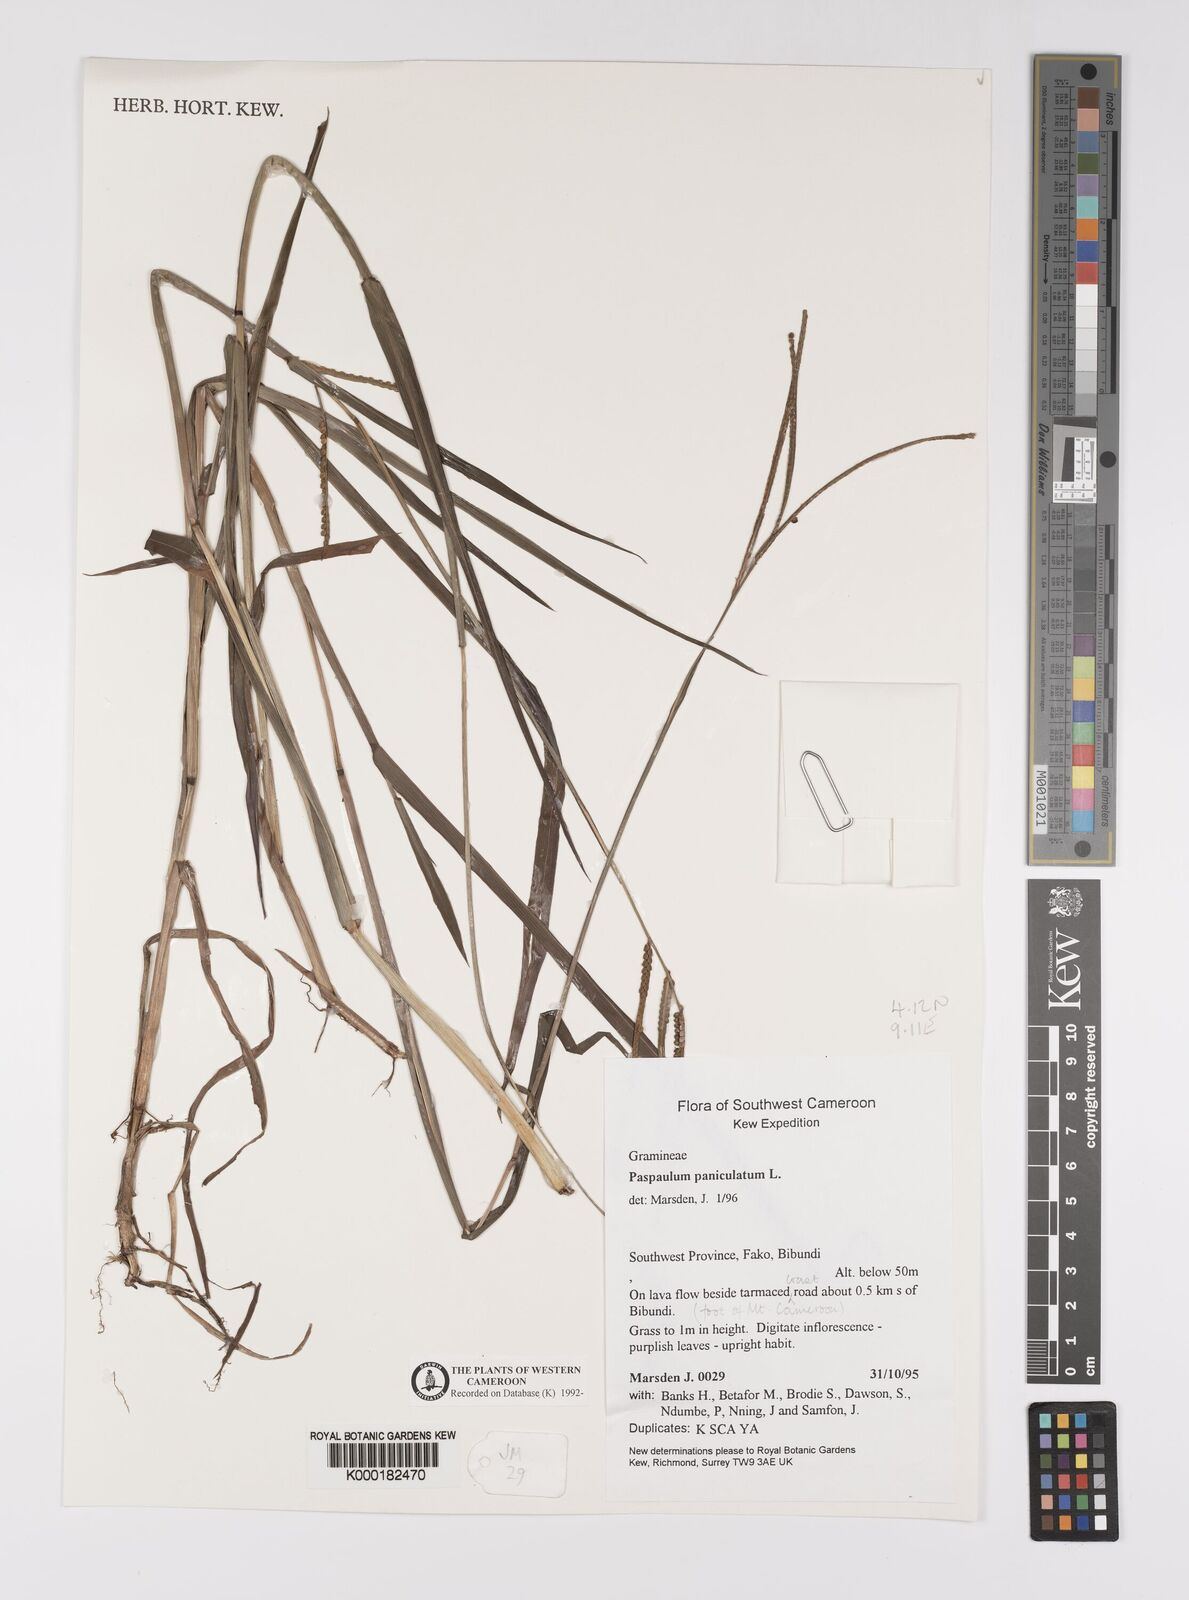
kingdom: Plantae
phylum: Tracheophyta
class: Liliopsida
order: Poales
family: Poaceae
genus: Paspalum
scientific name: Paspalum paniculatum
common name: Arrocillo
